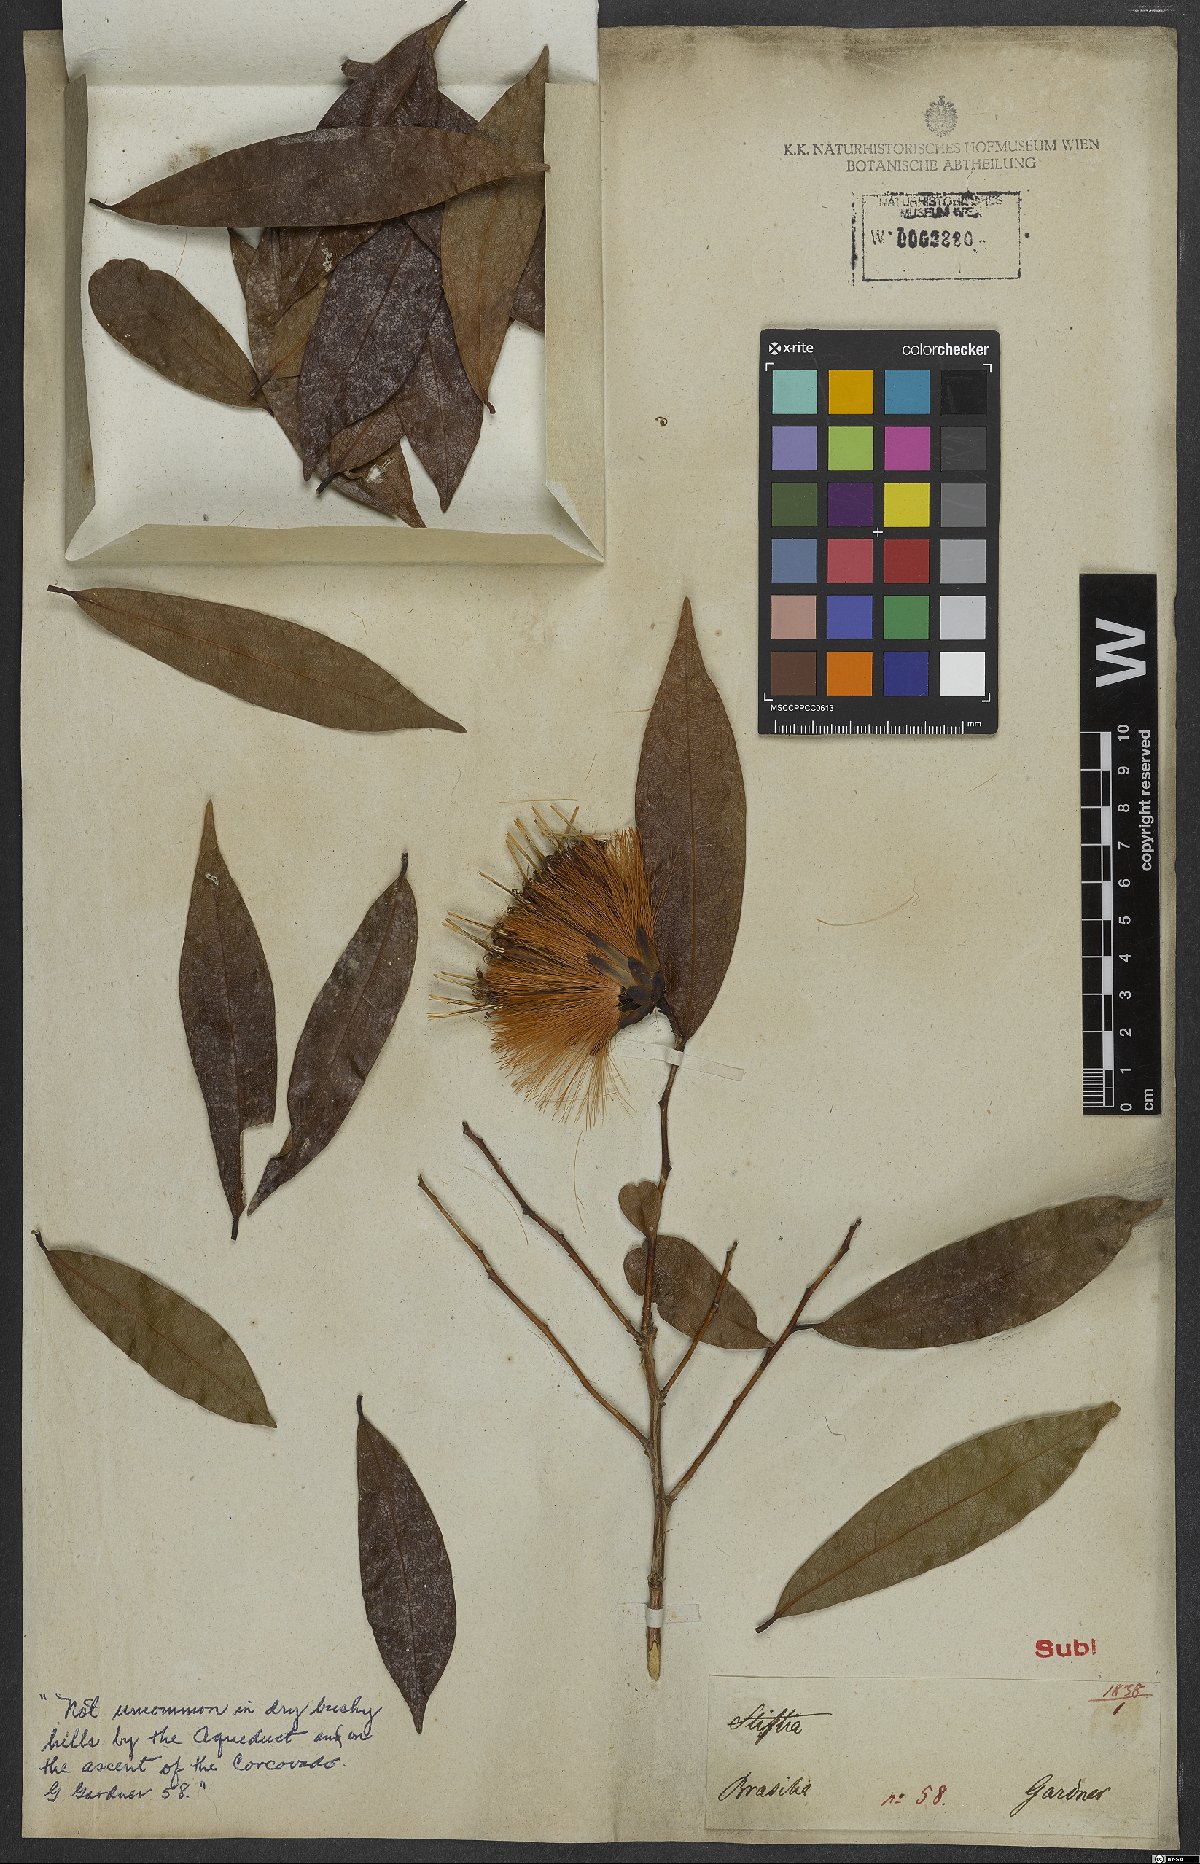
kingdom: Plantae
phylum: Tracheophyta
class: Magnoliopsida
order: Asterales
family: Asteraceae
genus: Stifftia
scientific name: Stifftia chrysantha
